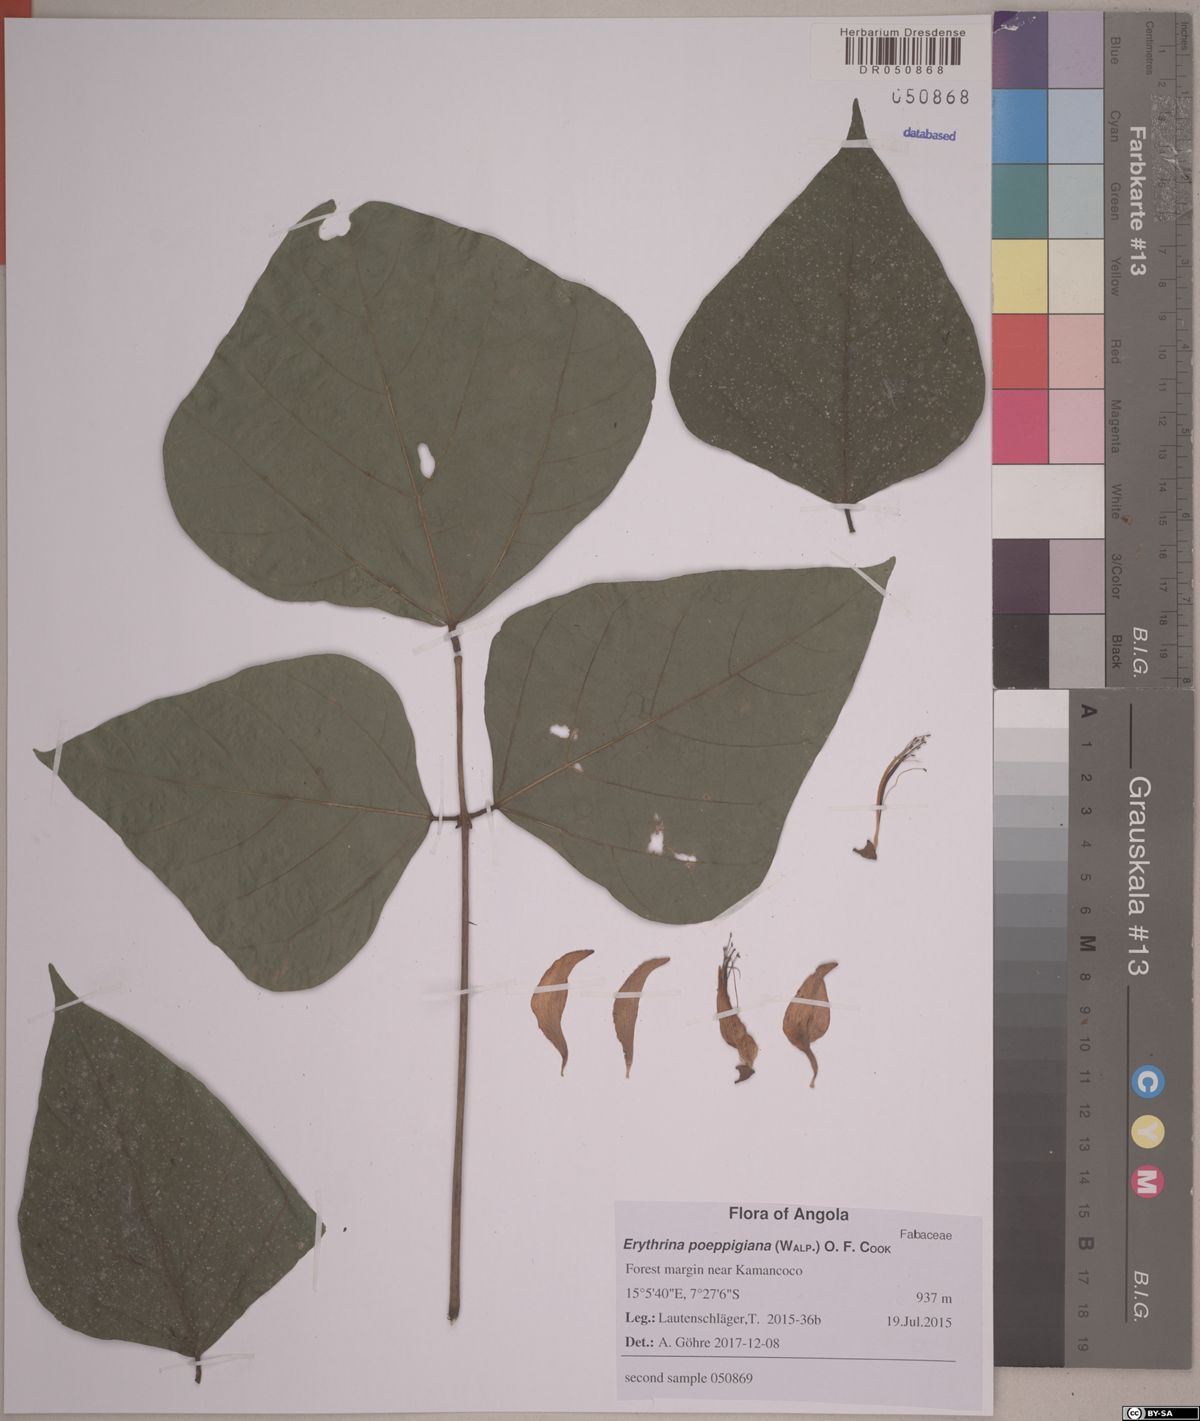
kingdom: Plantae
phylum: Tracheophyta
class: Magnoliopsida
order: Fabales
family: Fabaceae
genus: Erythrina
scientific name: Erythrina poeppigiana
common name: Coral tree
